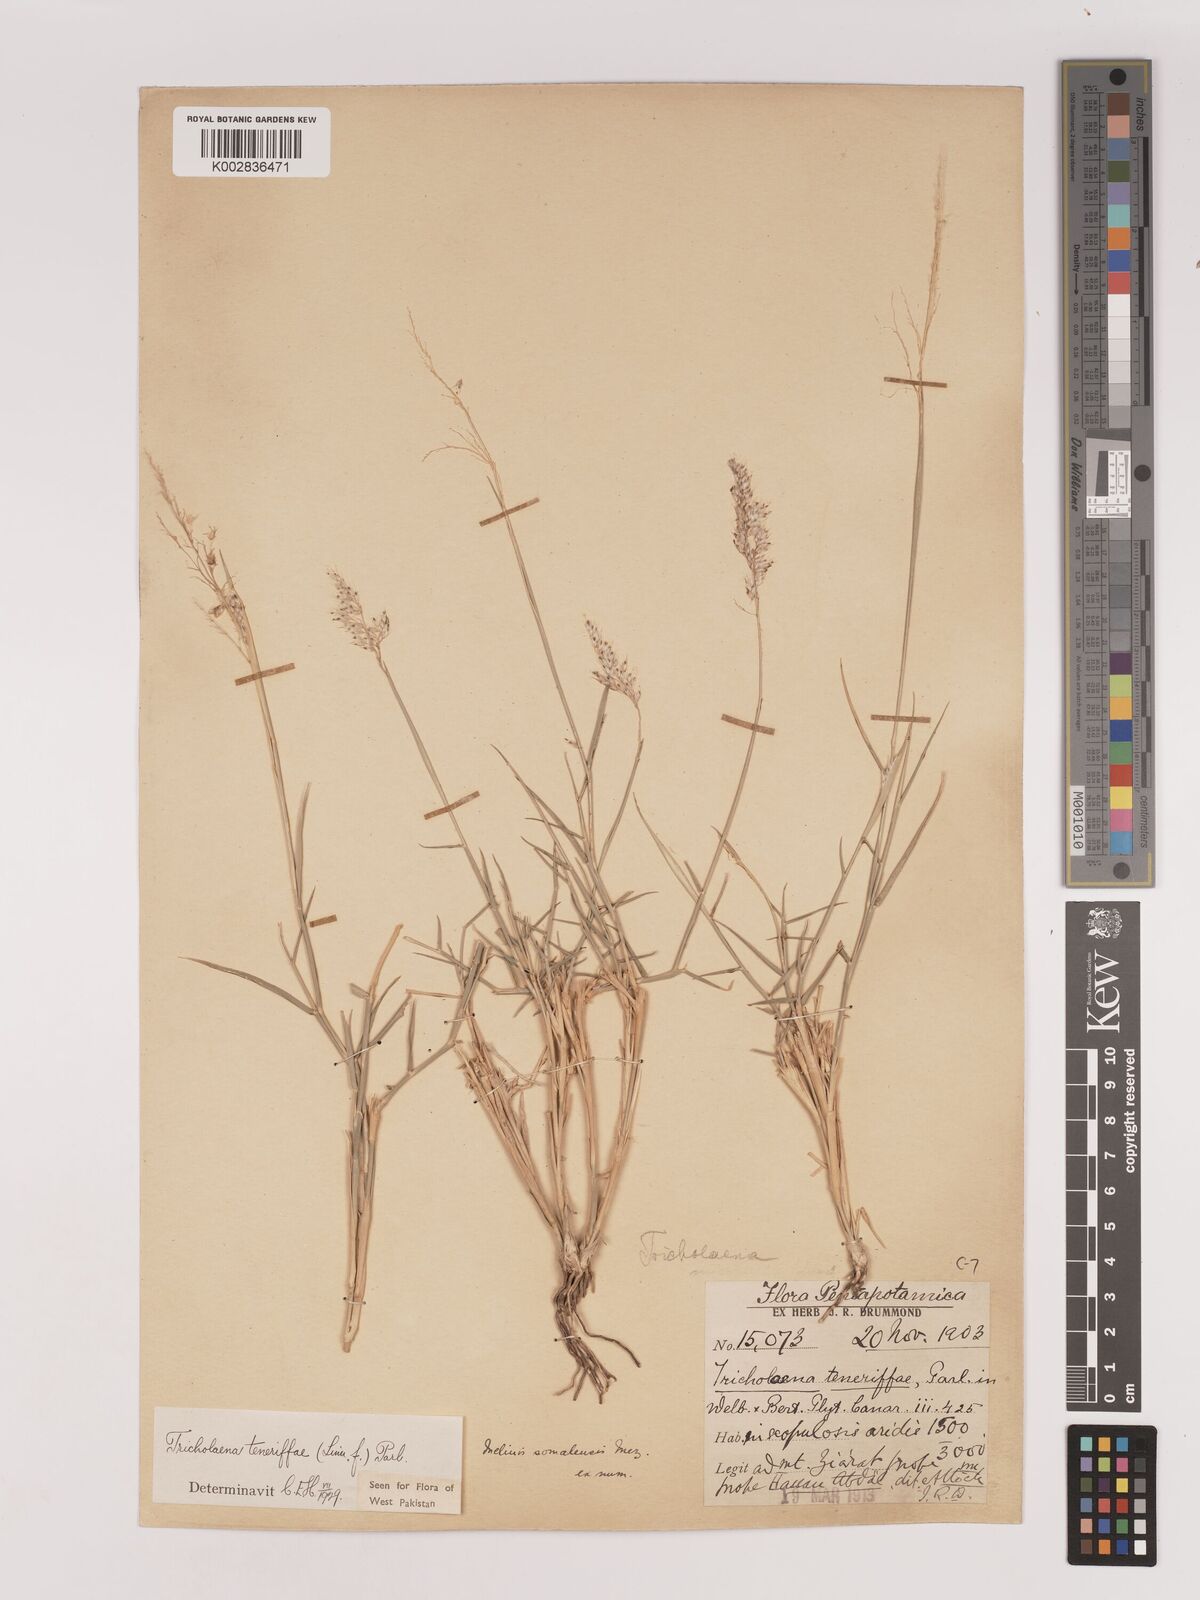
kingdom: Plantae
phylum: Tracheophyta
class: Liliopsida
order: Poales
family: Poaceae
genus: Tricholaena
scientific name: Tricholaena teneriffae
